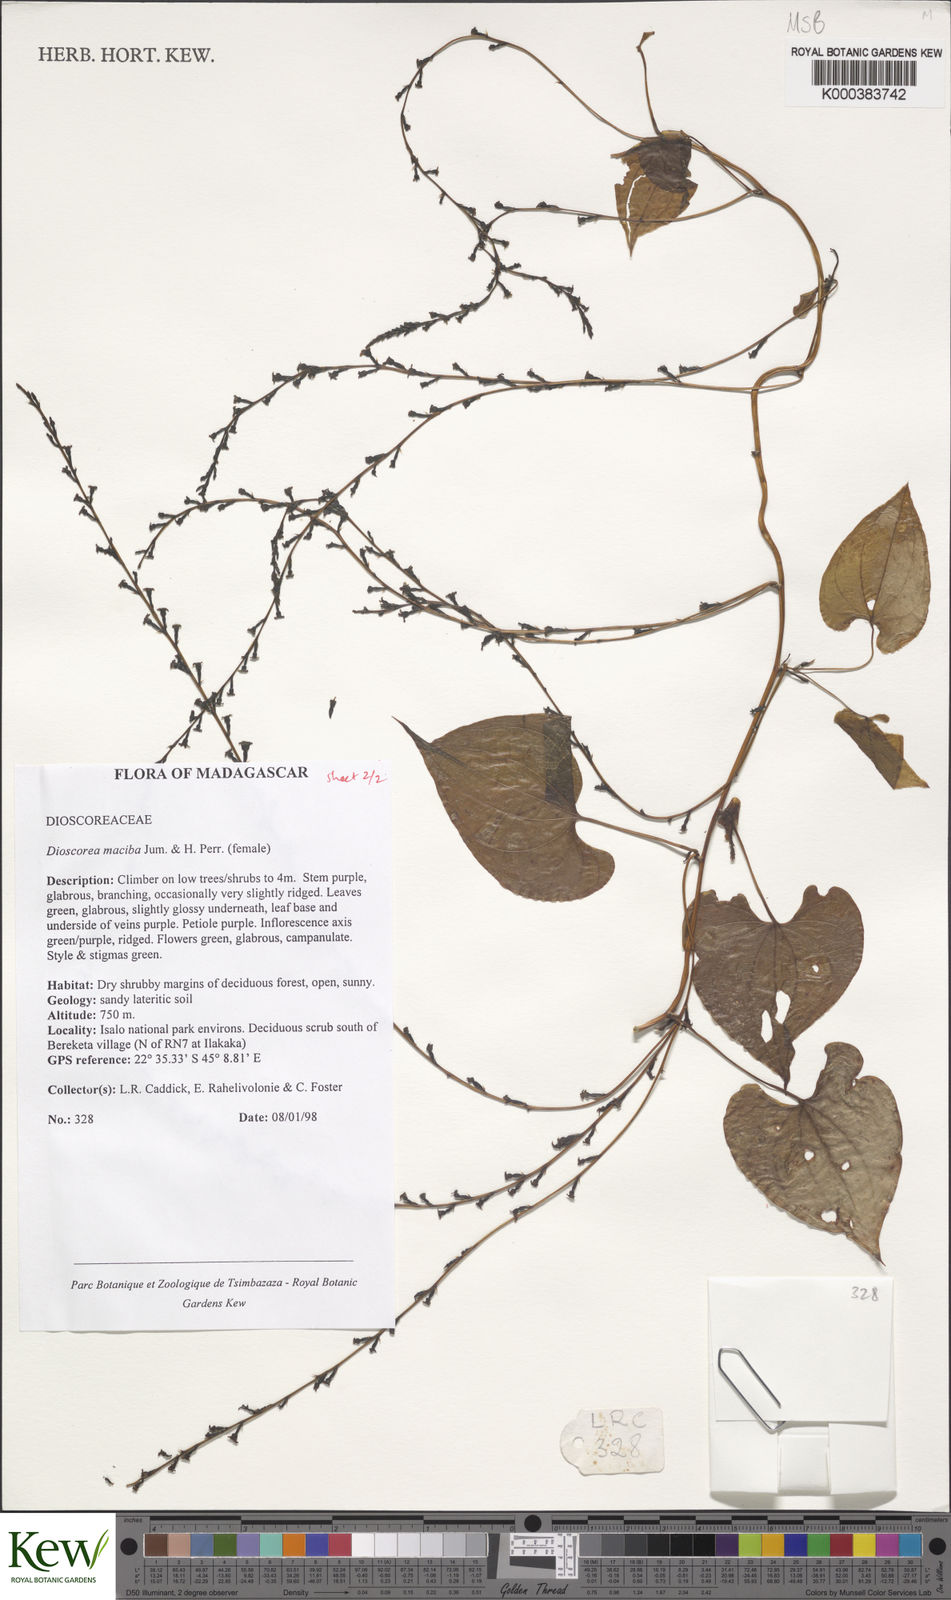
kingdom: Plantae
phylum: Tracheophyta
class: Liliopsida
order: Dioscoreales
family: Dioscoreaceae
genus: Dioscorea
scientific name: Dioscorea
